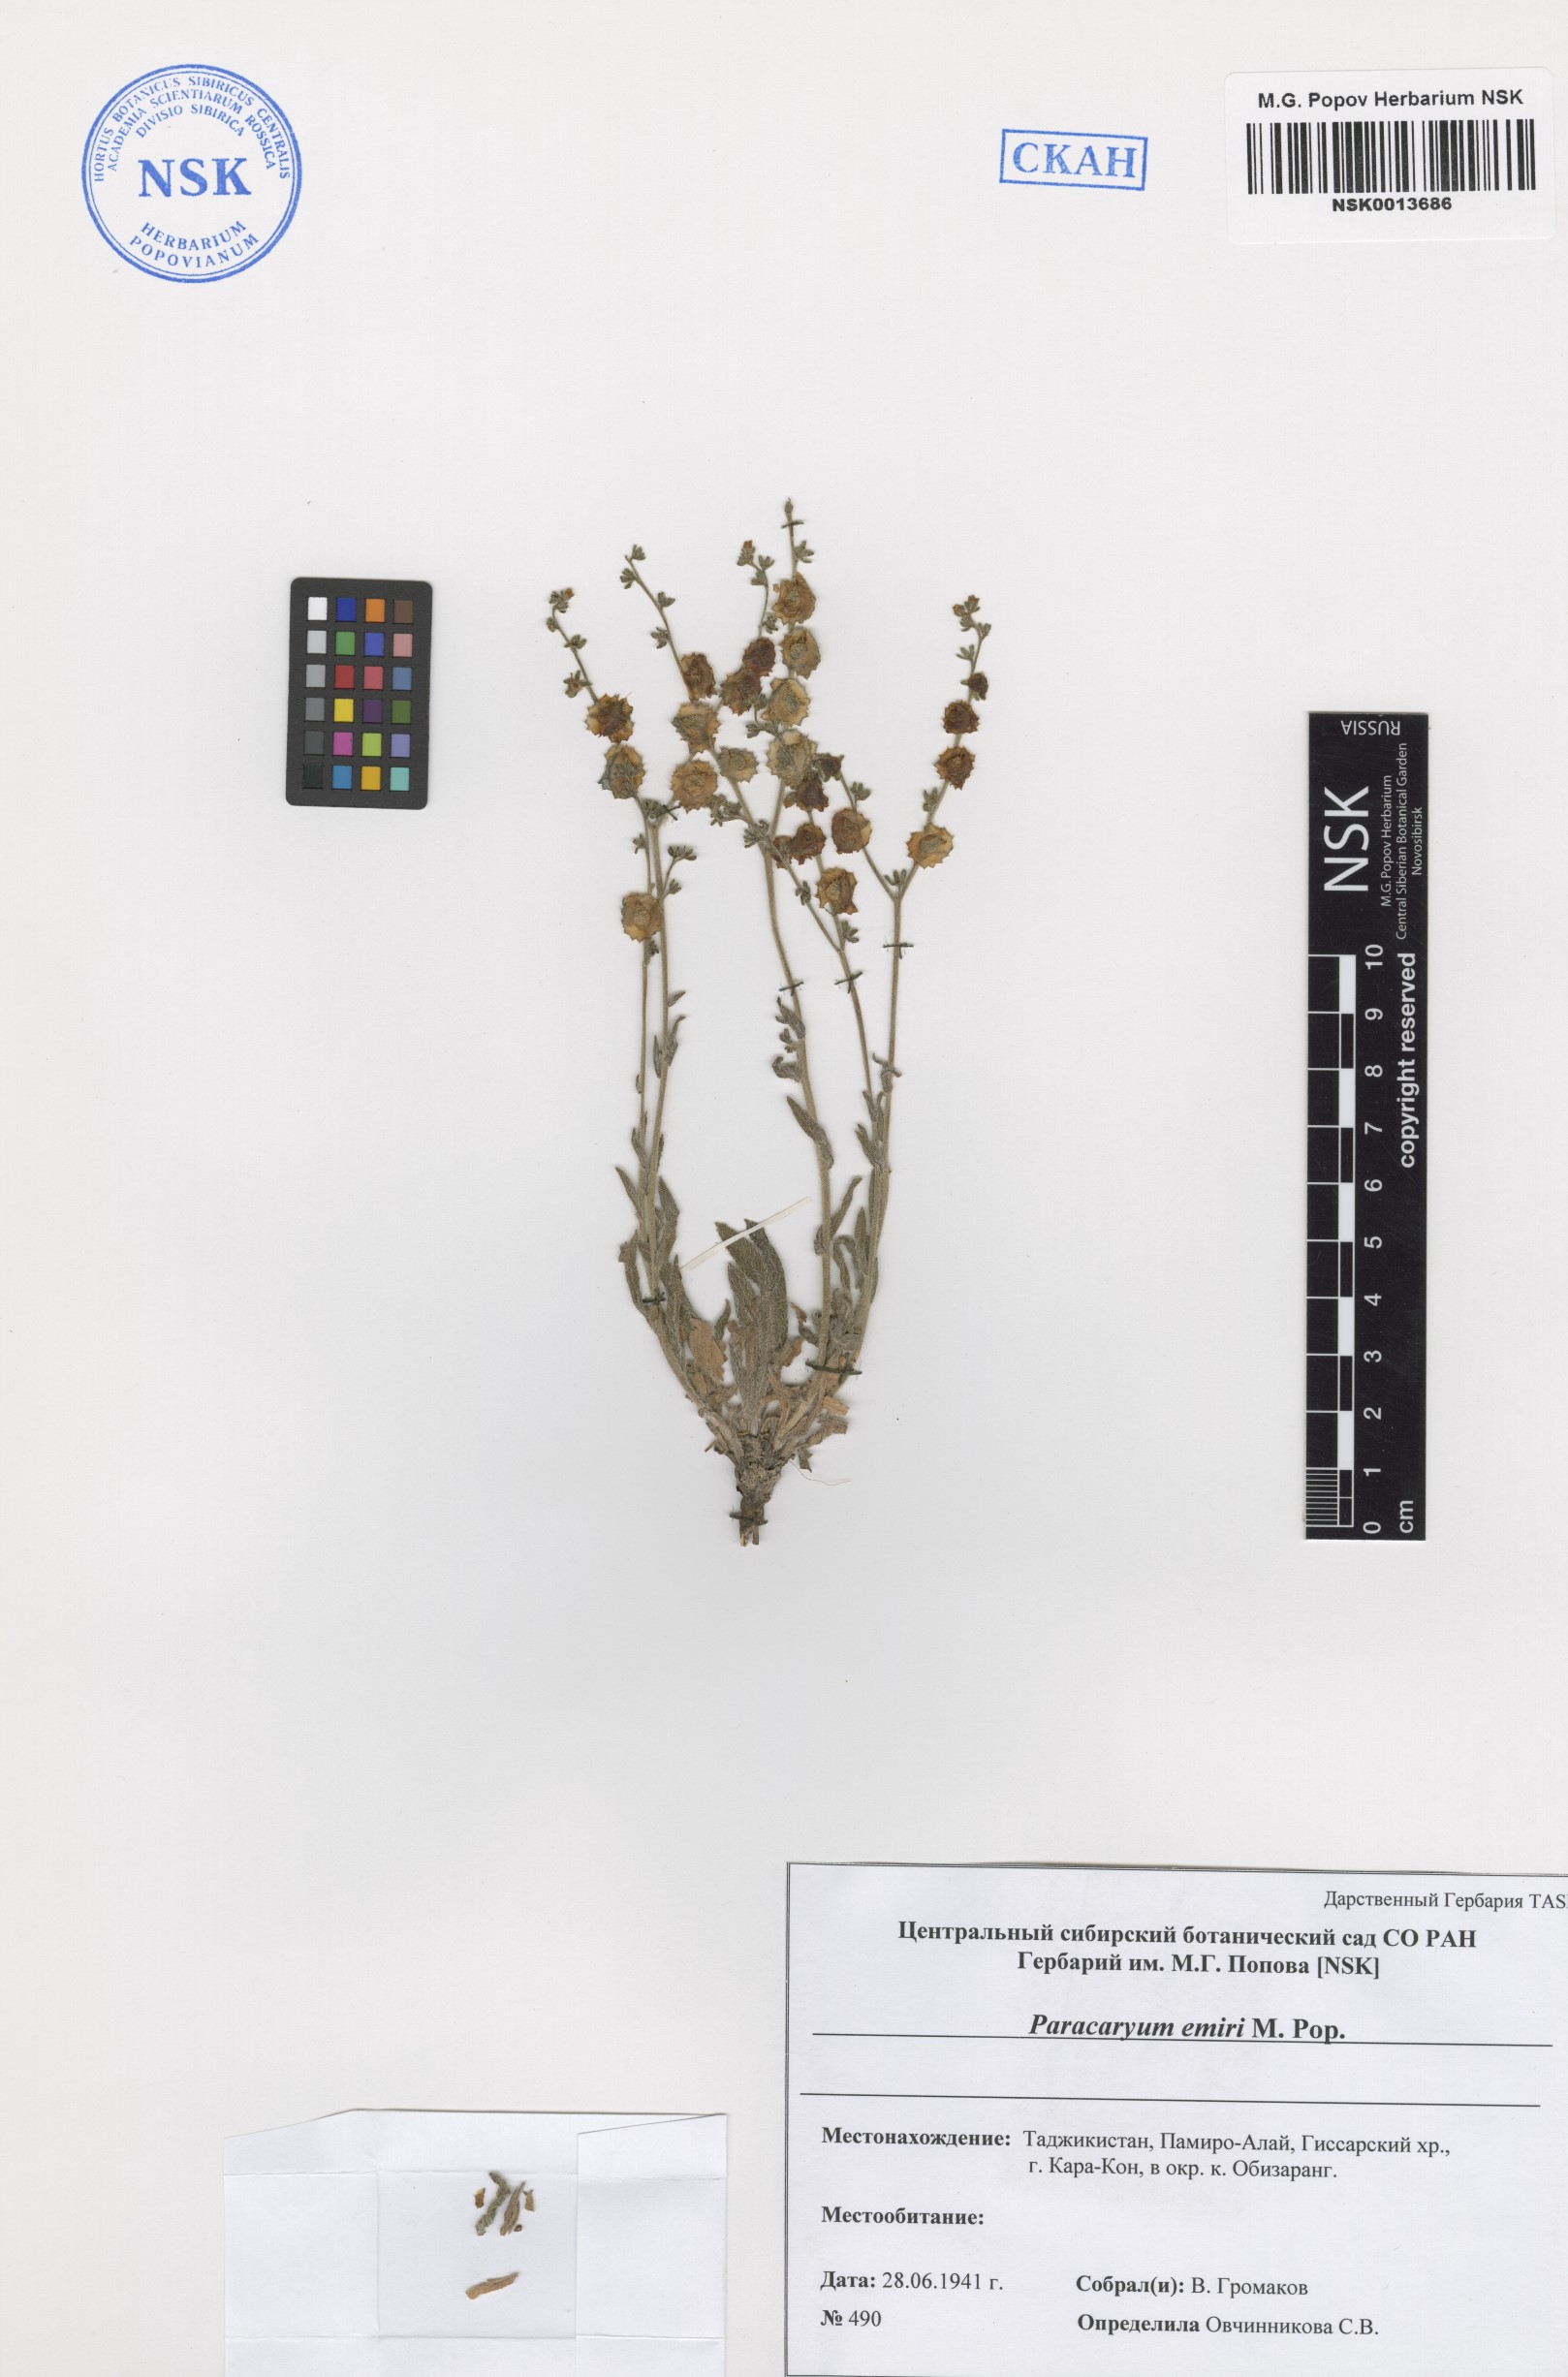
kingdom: Plantae
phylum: Tracheophyta
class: Magnoliopsida
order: Boraginales
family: Boraginaceae
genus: Paracaryum
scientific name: Paracaryum himalayense
